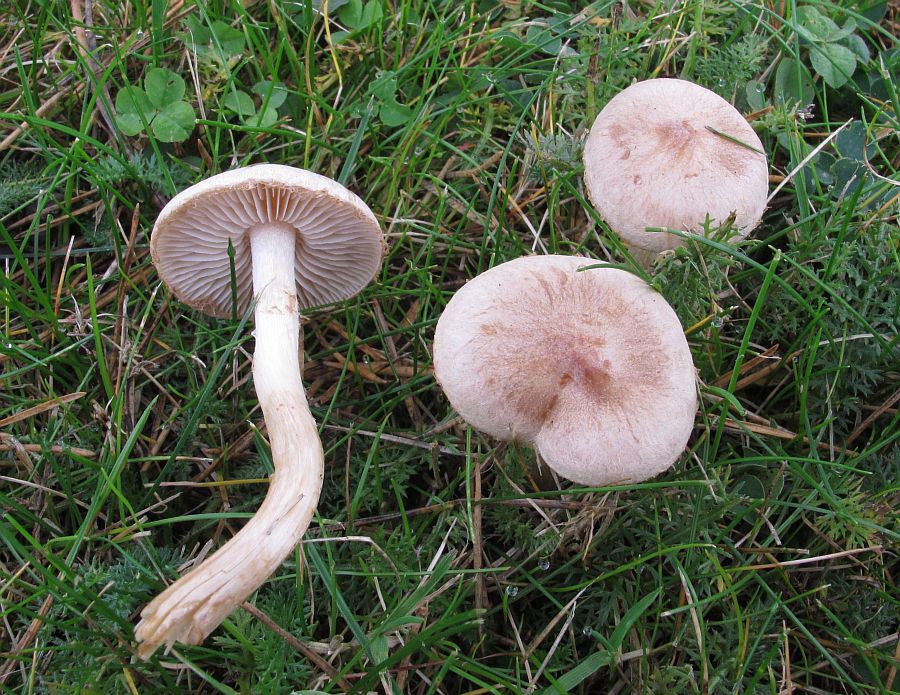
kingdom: Fungi
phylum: Basidiomycota
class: Agaricomycetes
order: Agaricales
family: Hymenogastraceae
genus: Hebeloma
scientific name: Hebeloma mesophaeum
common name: lerbrun tåreblad
